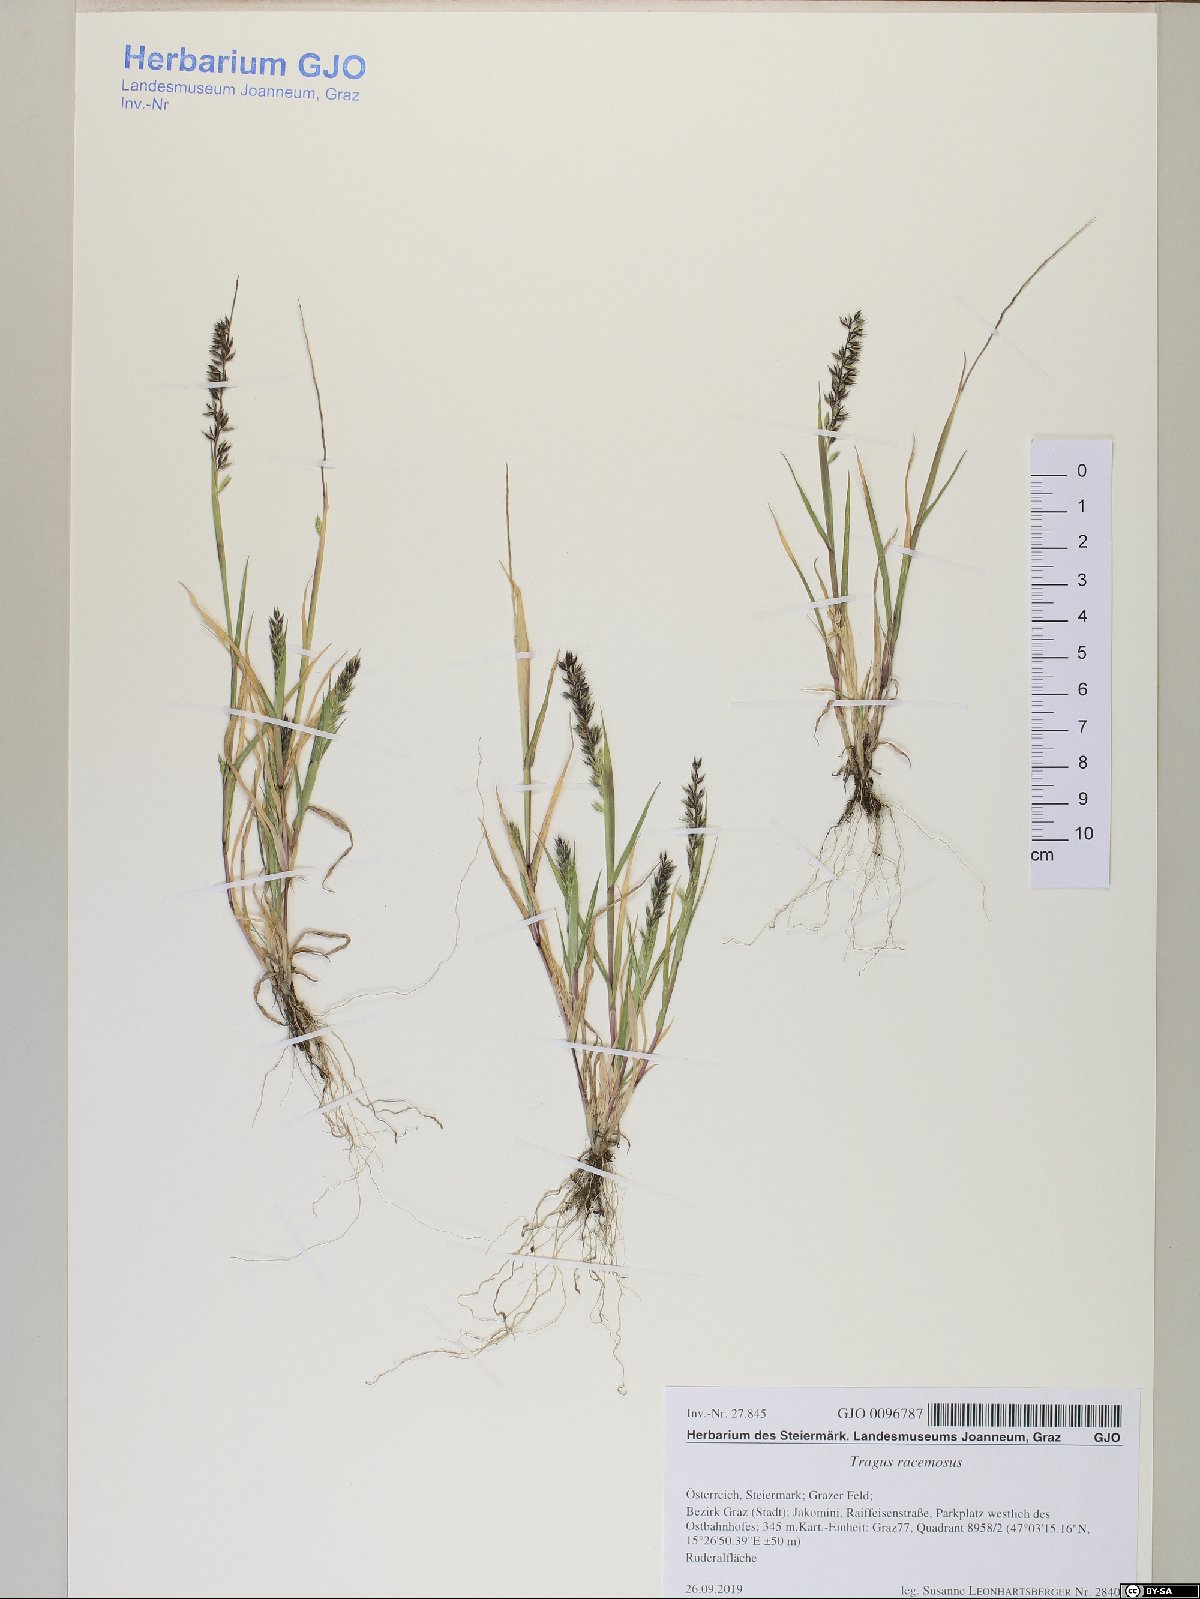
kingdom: Plantae
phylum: Tracheophyta
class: Liliopsida
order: Poales
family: Poaceae
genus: Tragus
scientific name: Tragus racemosus
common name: European bur-grass
